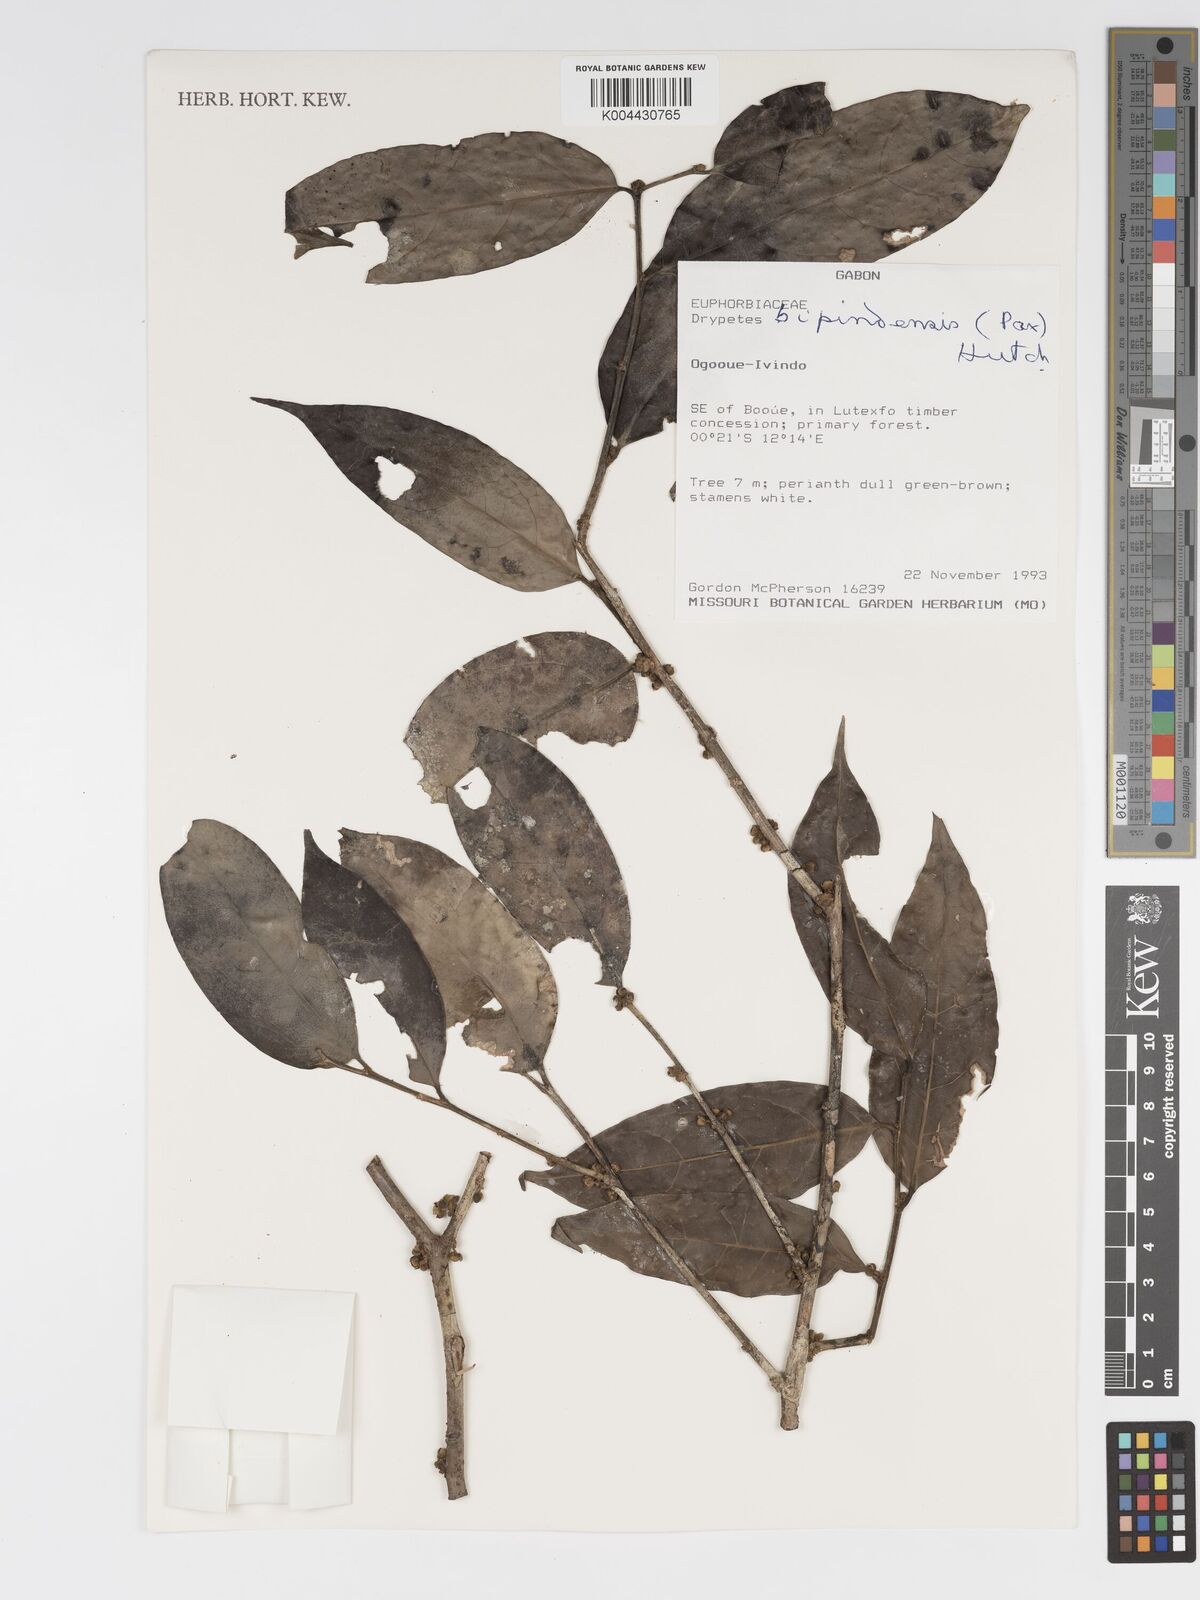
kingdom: Plantae
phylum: Tracheophyta
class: Magnoliopsida
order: Malpighiales
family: Putranjivaceae
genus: Drypetes
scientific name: Drypetes bipindensis
